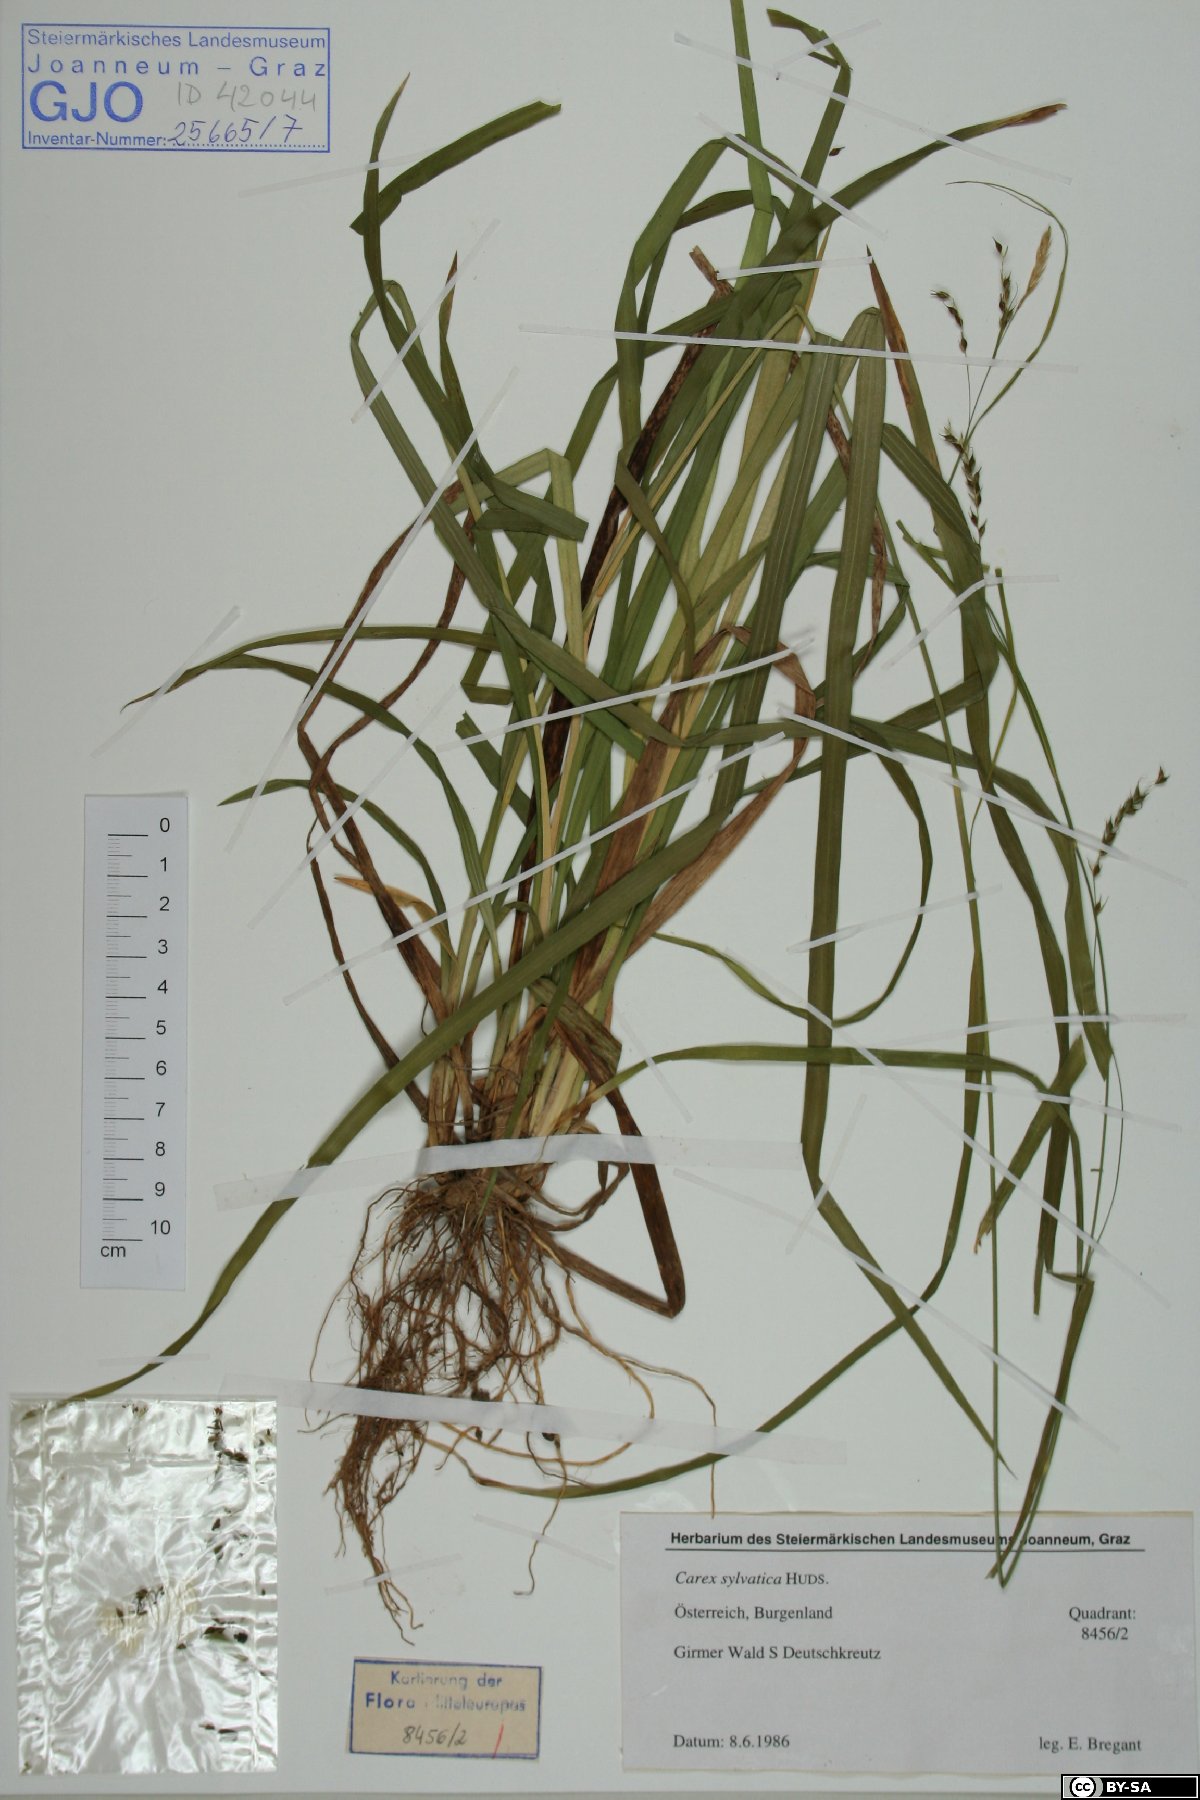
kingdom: Plantae
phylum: Tracheophyta
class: Liliopsida
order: Poales
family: Cyperaceae
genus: Carex
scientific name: Carex sylvatica
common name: Wood-sedge
